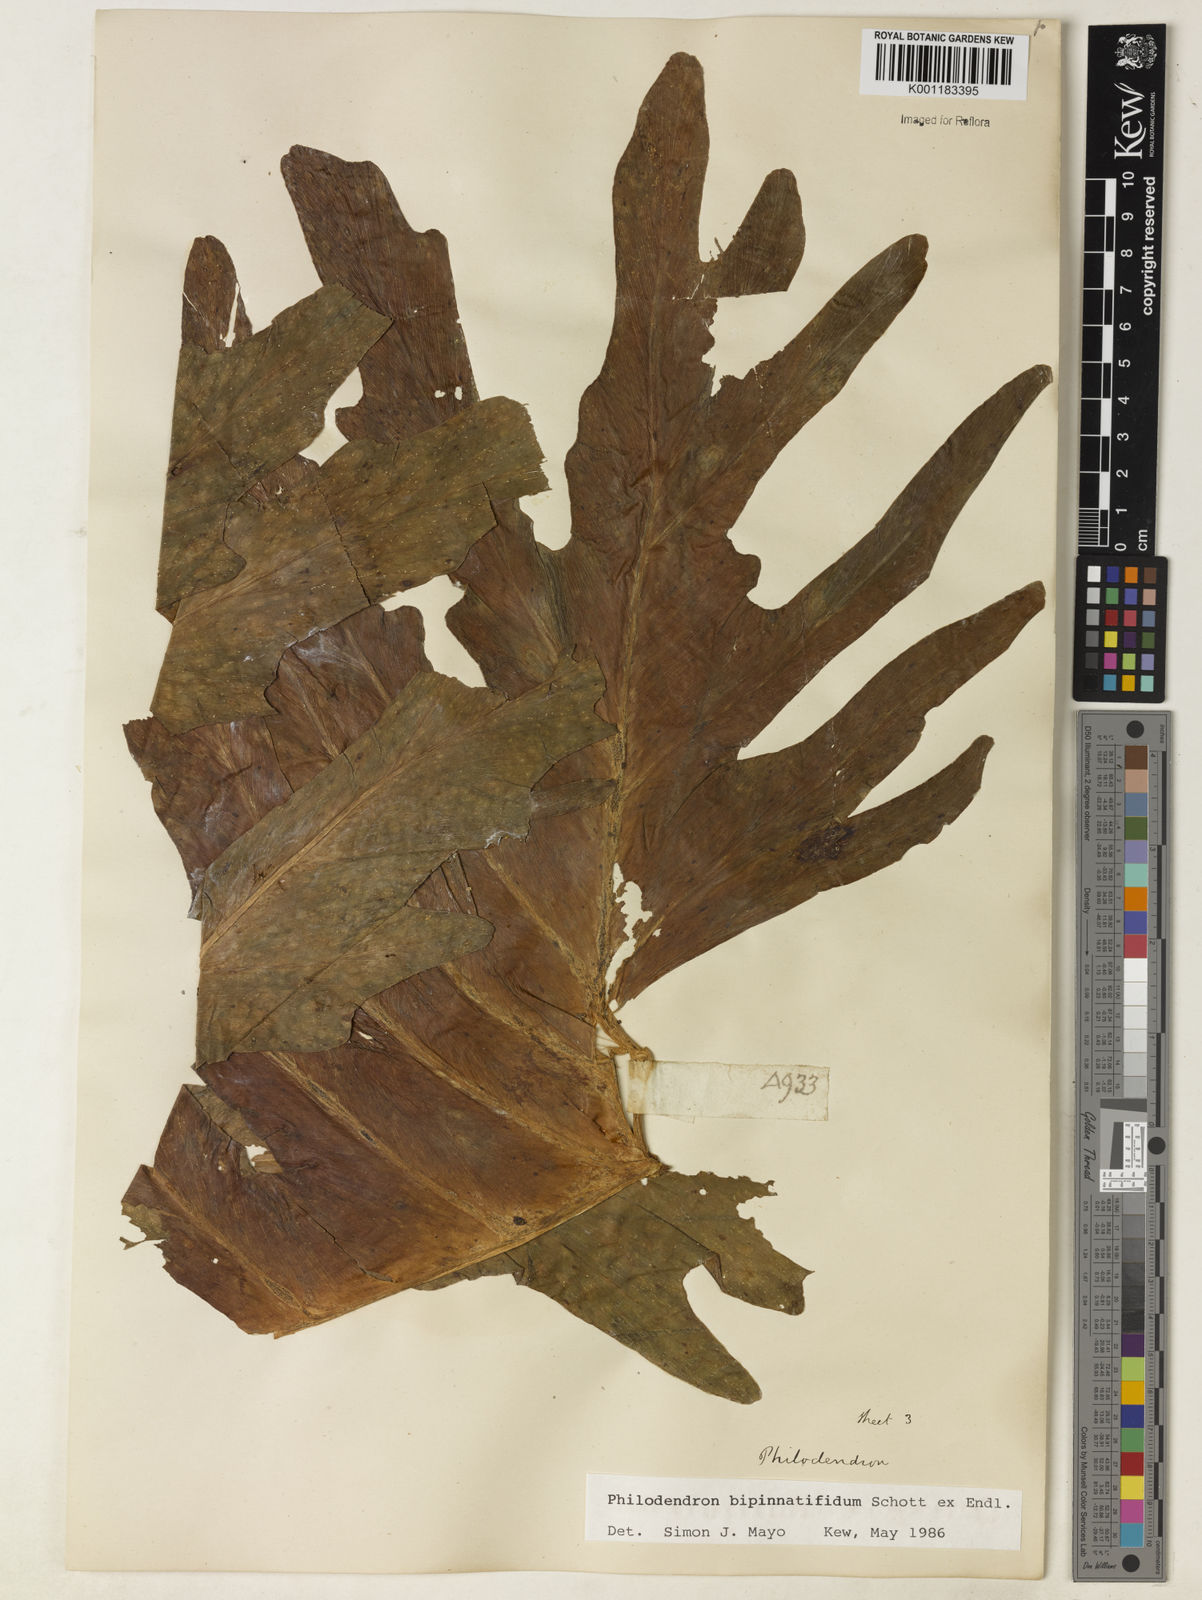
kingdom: Plantae
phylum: Tracheophyta
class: Liliopsida
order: Alismatales
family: Araceae
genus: Philodendron
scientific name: Philodendron
